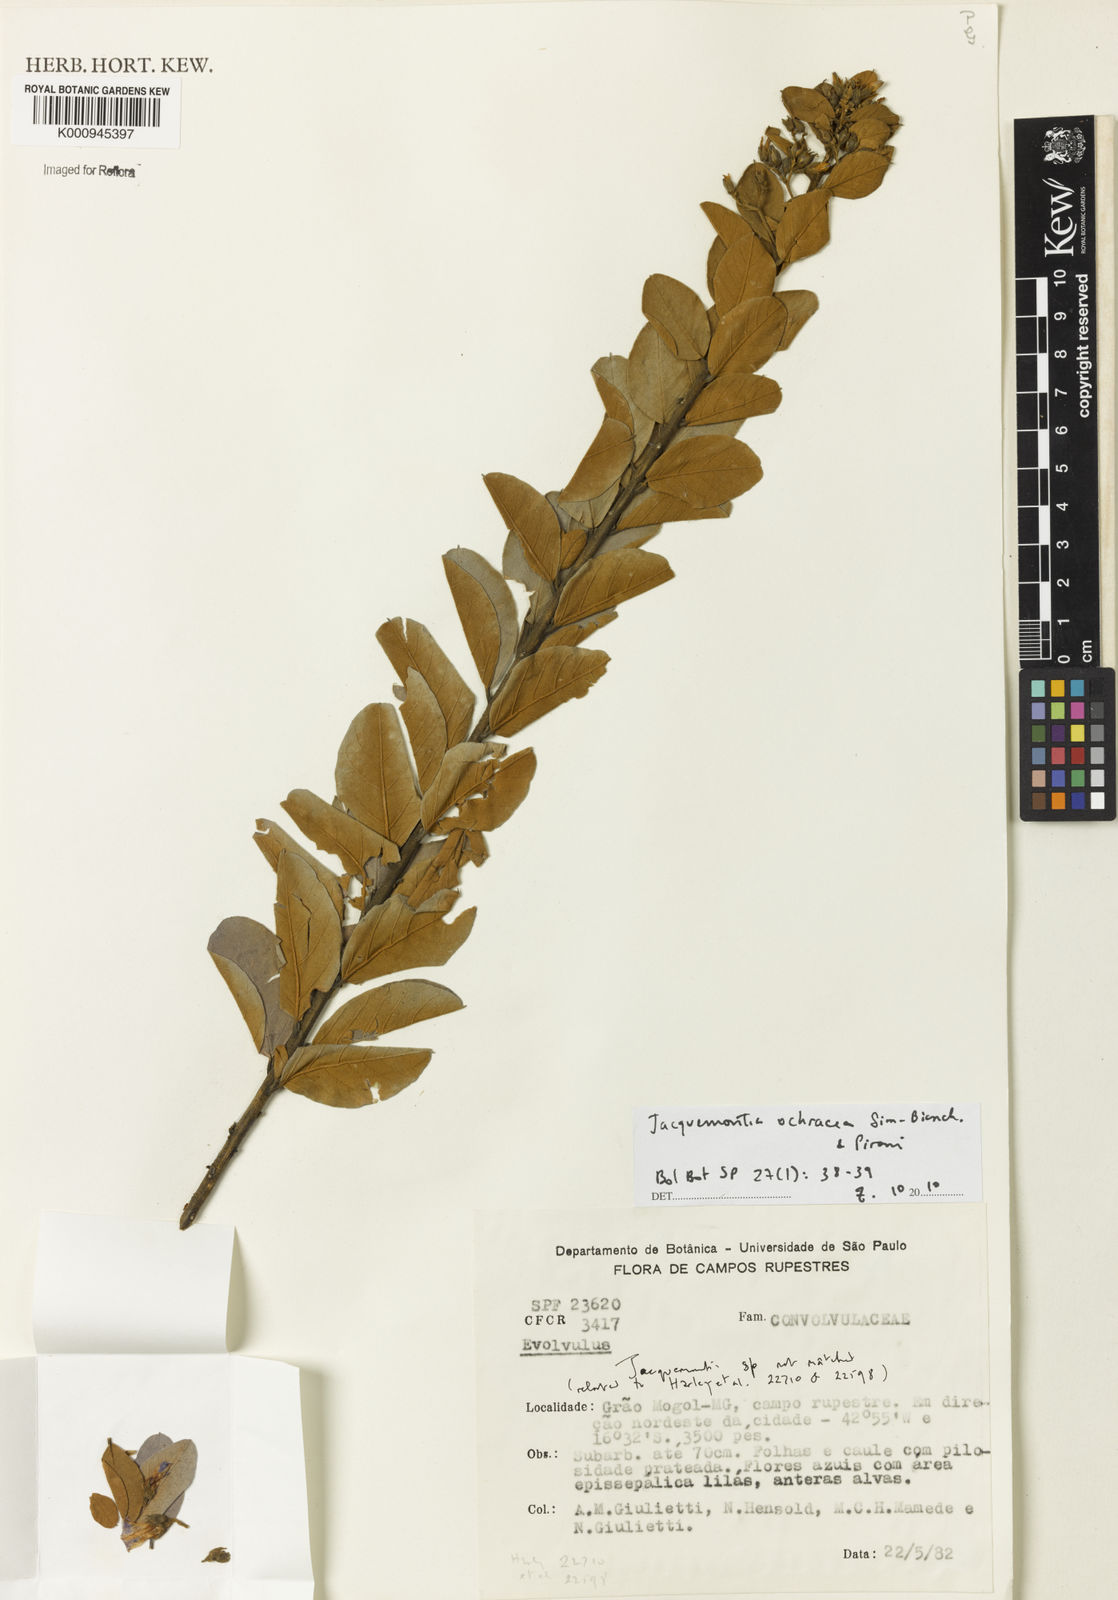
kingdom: Plantae
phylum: Tracheophyta
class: Magnoliopsida
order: Solanales
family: Convolvulaceae
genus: Jacquemontia
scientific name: Jacquemontia ochracea
